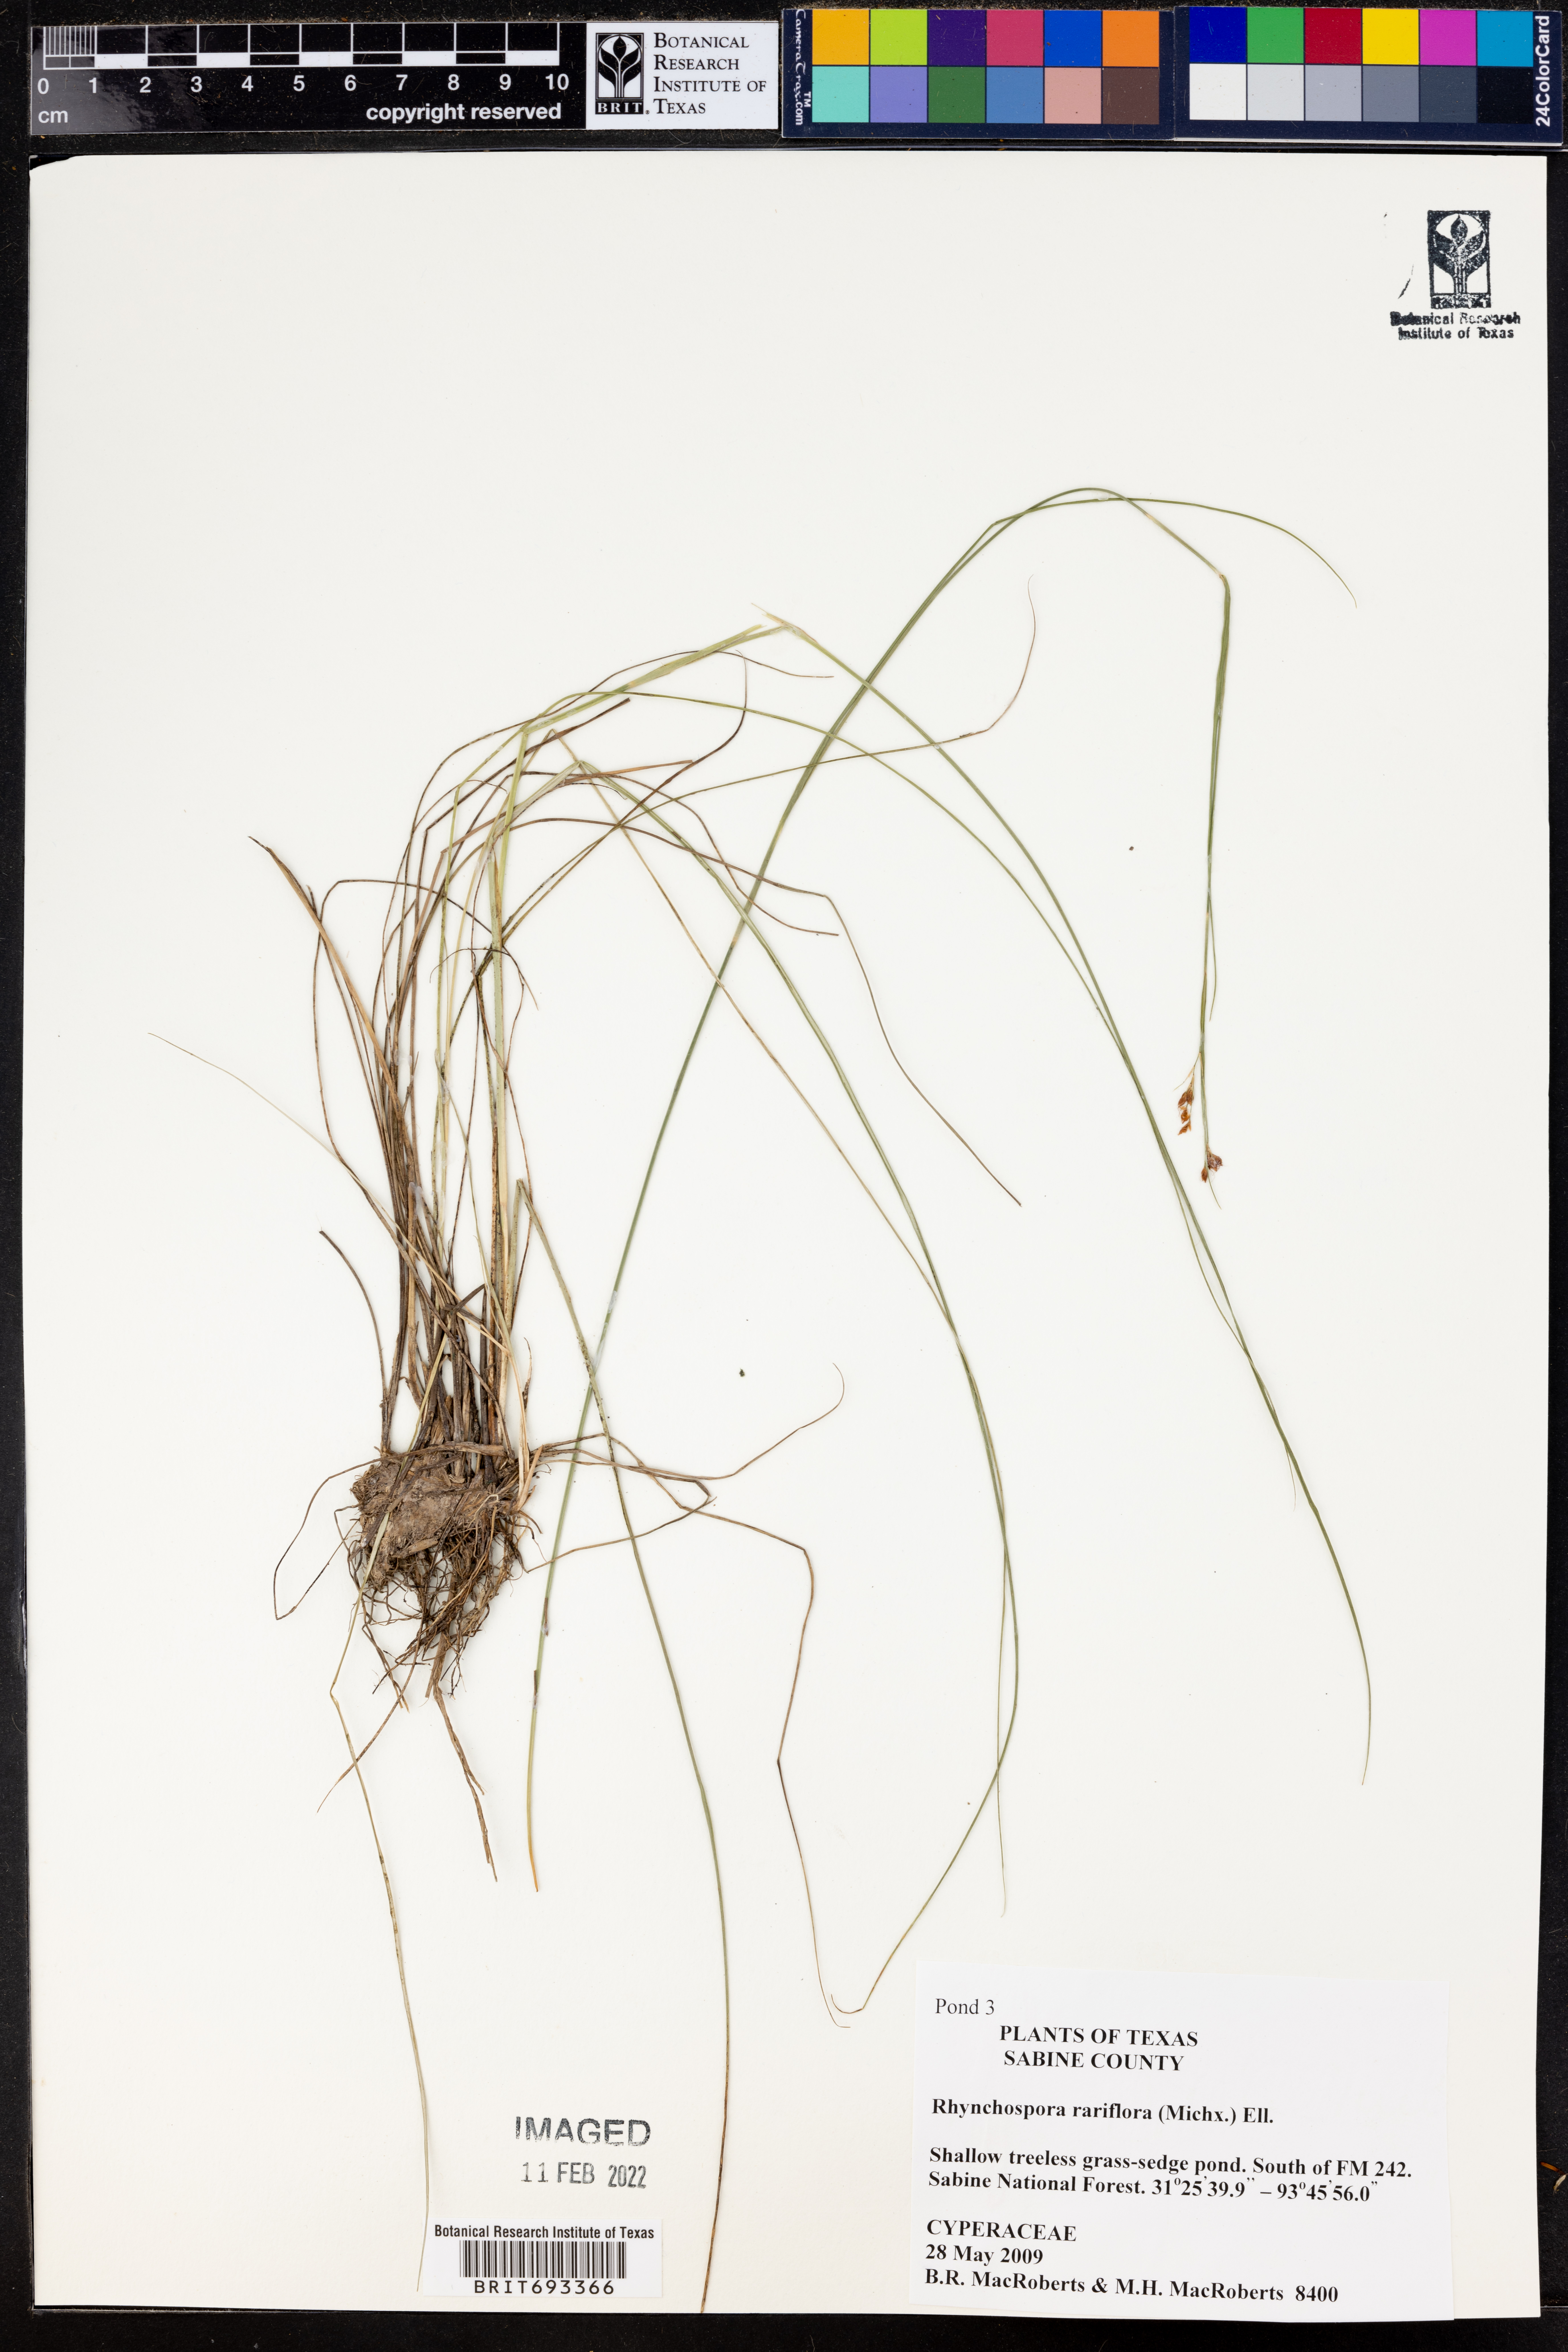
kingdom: Plantae
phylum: Tracheophyta
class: Liliopsida
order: Poales
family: Cyperaceae
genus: Rhynchospora
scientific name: Rhynchospora rariflora
